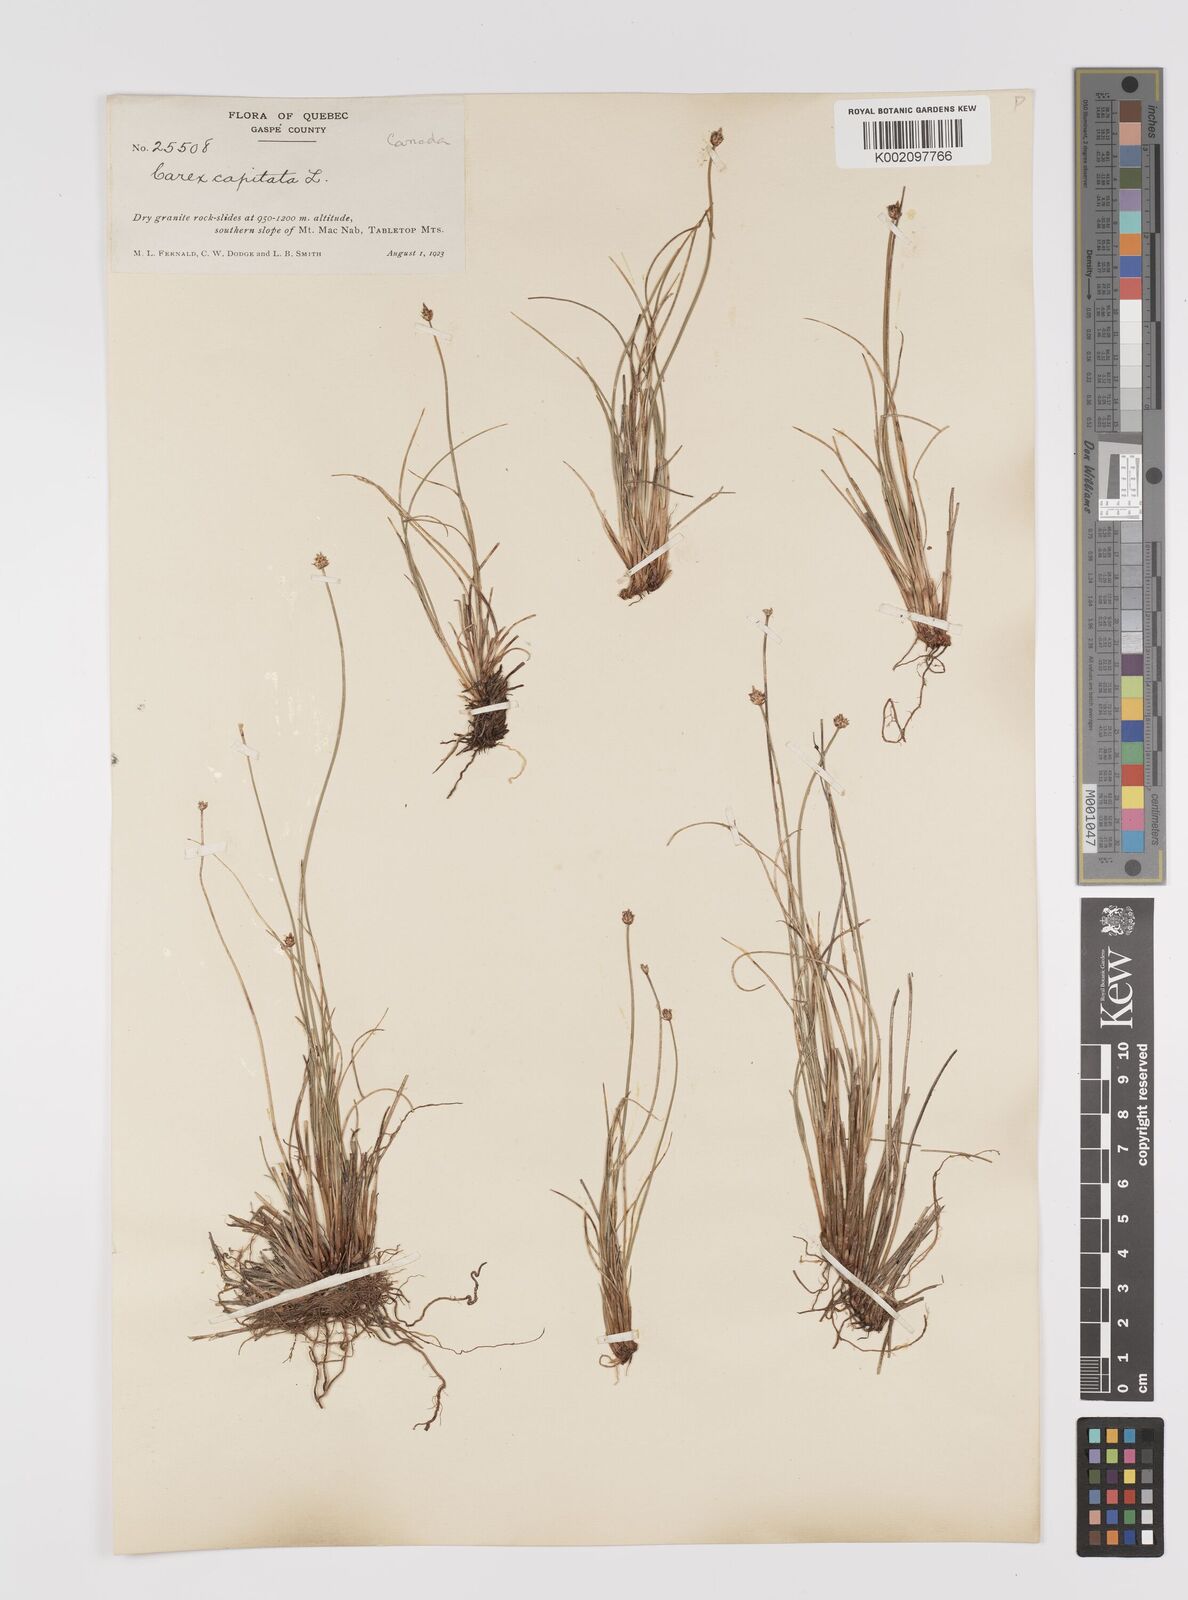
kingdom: Plantae
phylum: Tracheophyta
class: Liliopsida
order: Poales
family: Cyperaceae
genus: Carex
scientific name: Carex capitata
